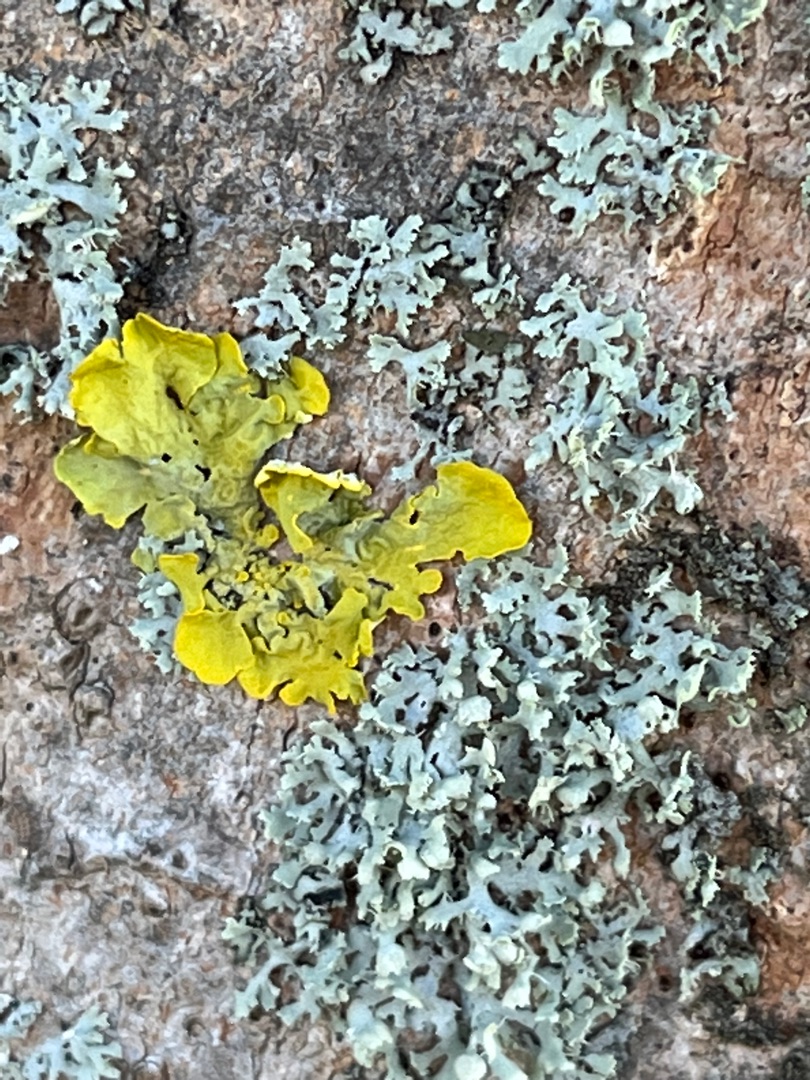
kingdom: Fungi
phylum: Ascomycota
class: Lecanoromycetes
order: Teloschistales
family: Teloschistaceae
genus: Xanthoria
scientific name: Xanthoria parietina
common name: Almindelig væggelav
